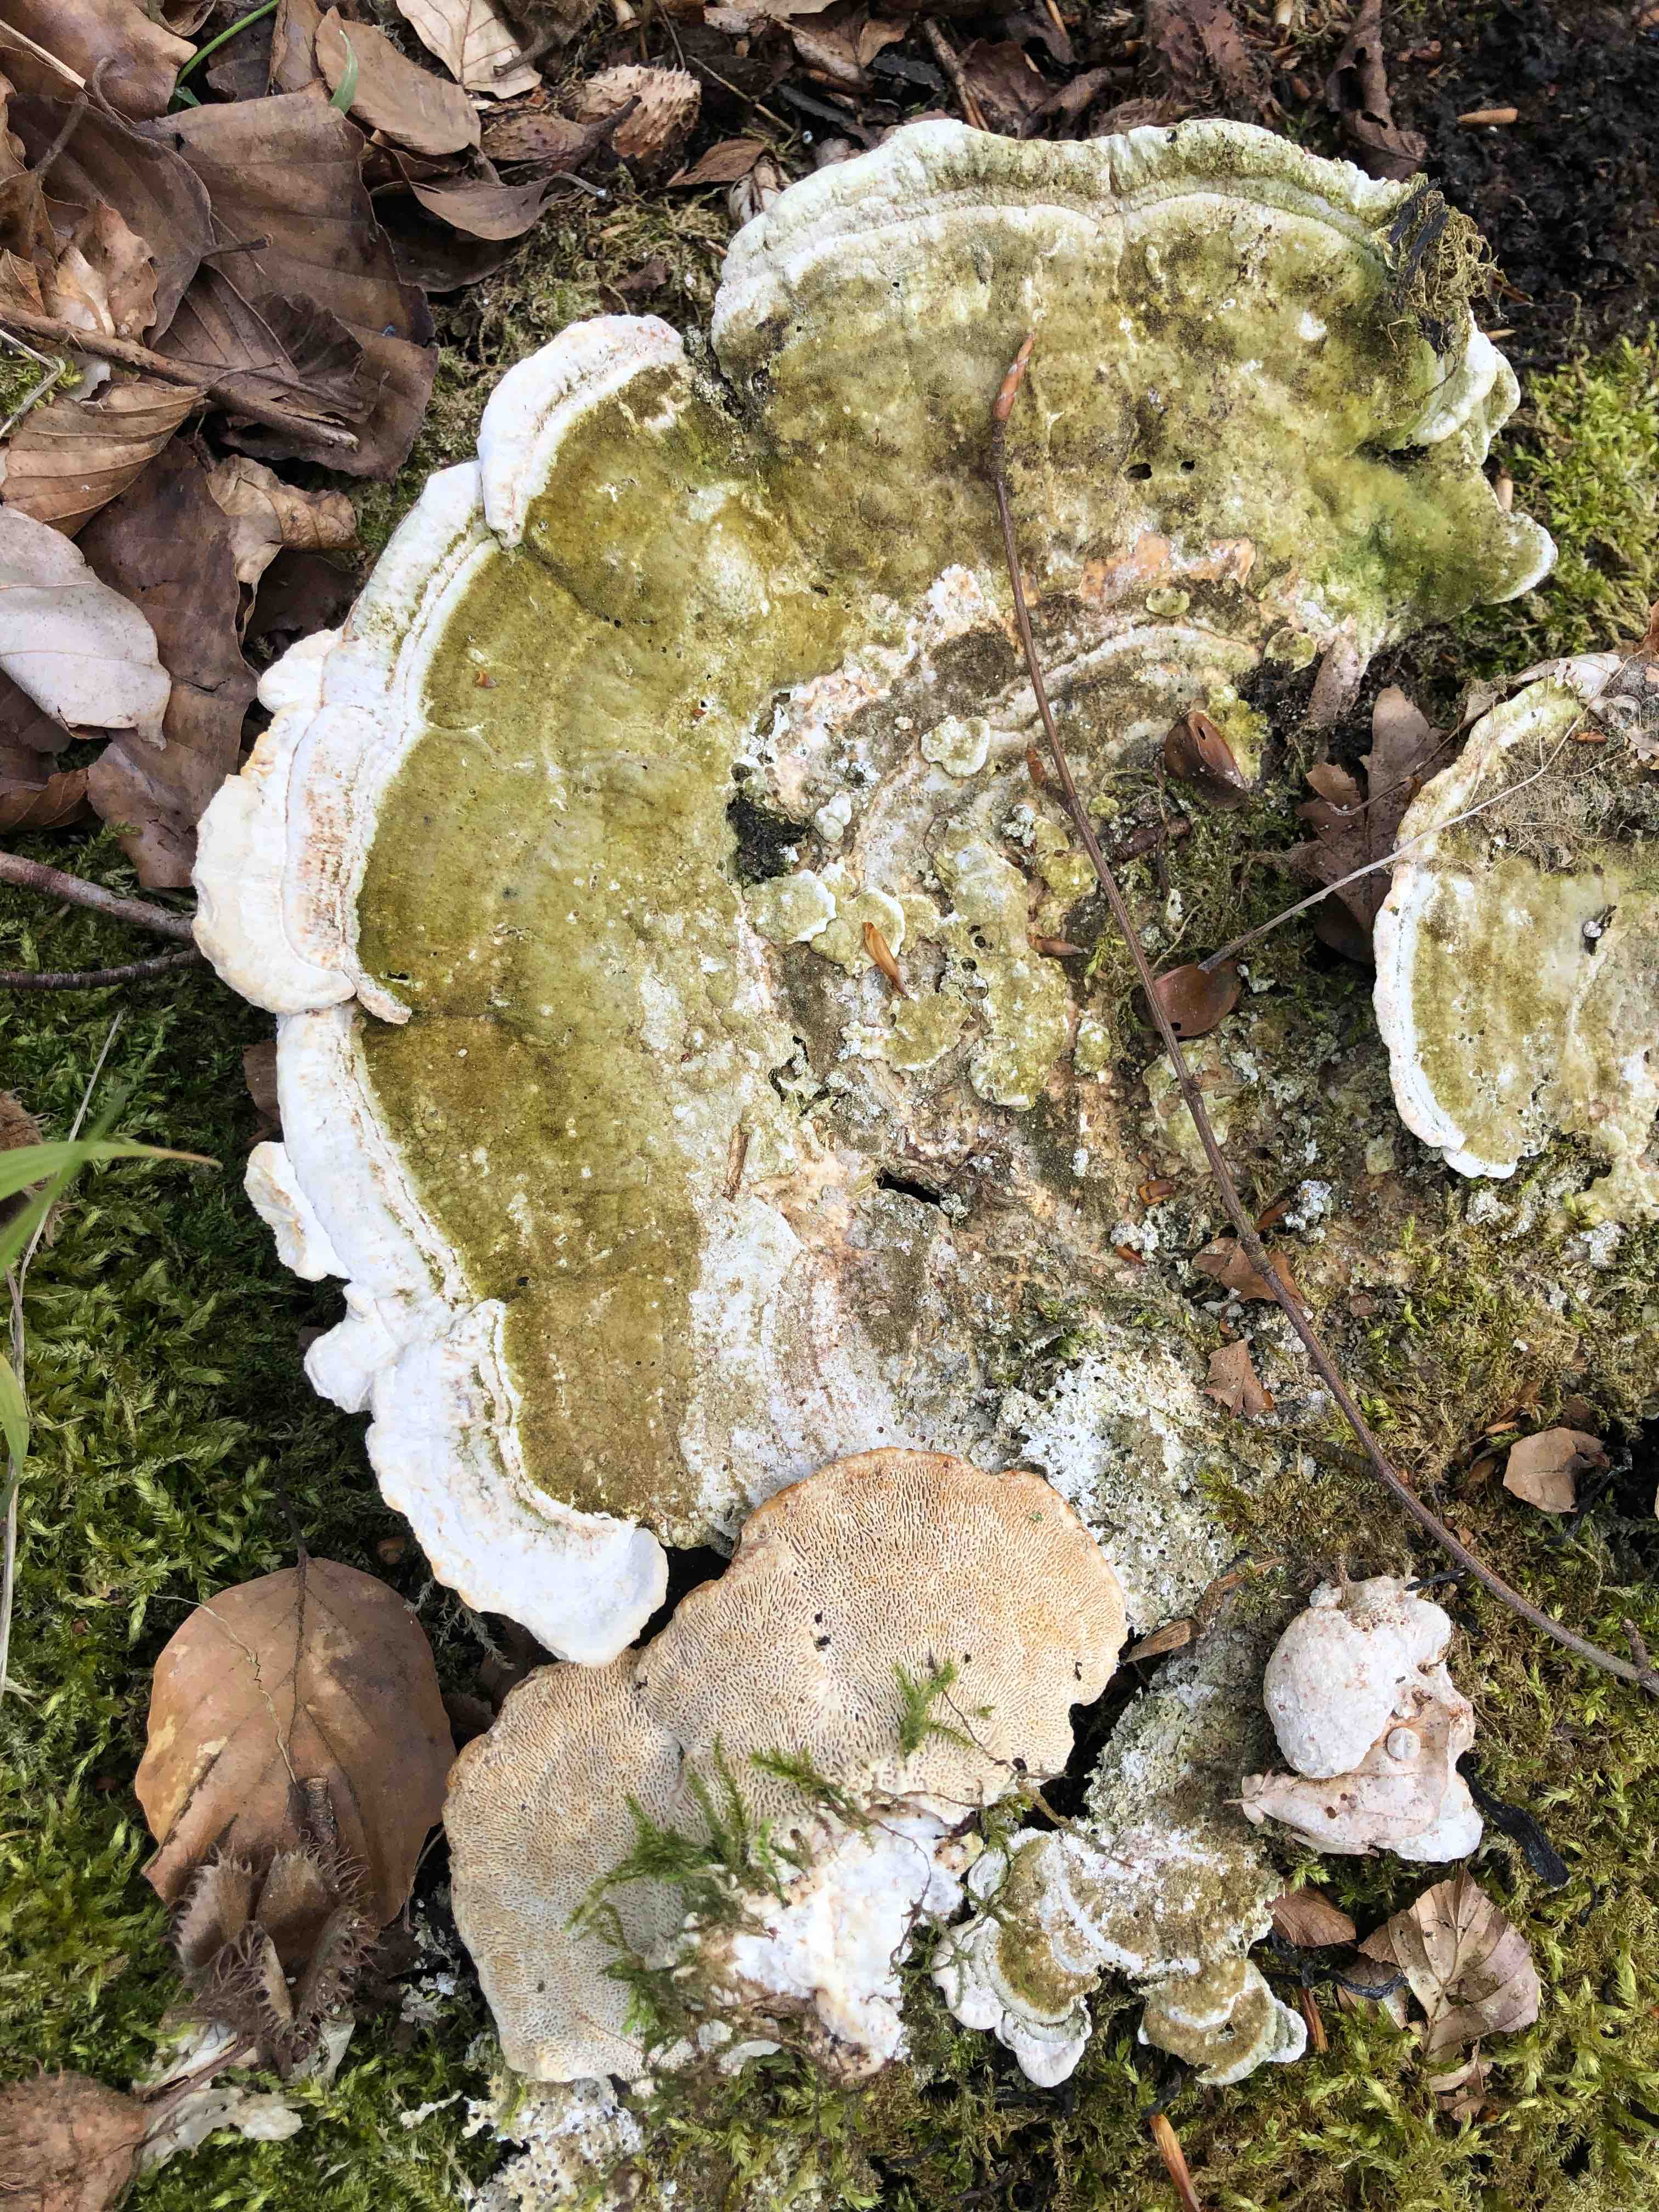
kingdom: Fungi
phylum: Basidiomycota
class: Agaricomycetes
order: Polyporales
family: Polyporaceae
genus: Trametes
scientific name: Trametes gibbosa
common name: puklet læderporesvamp
